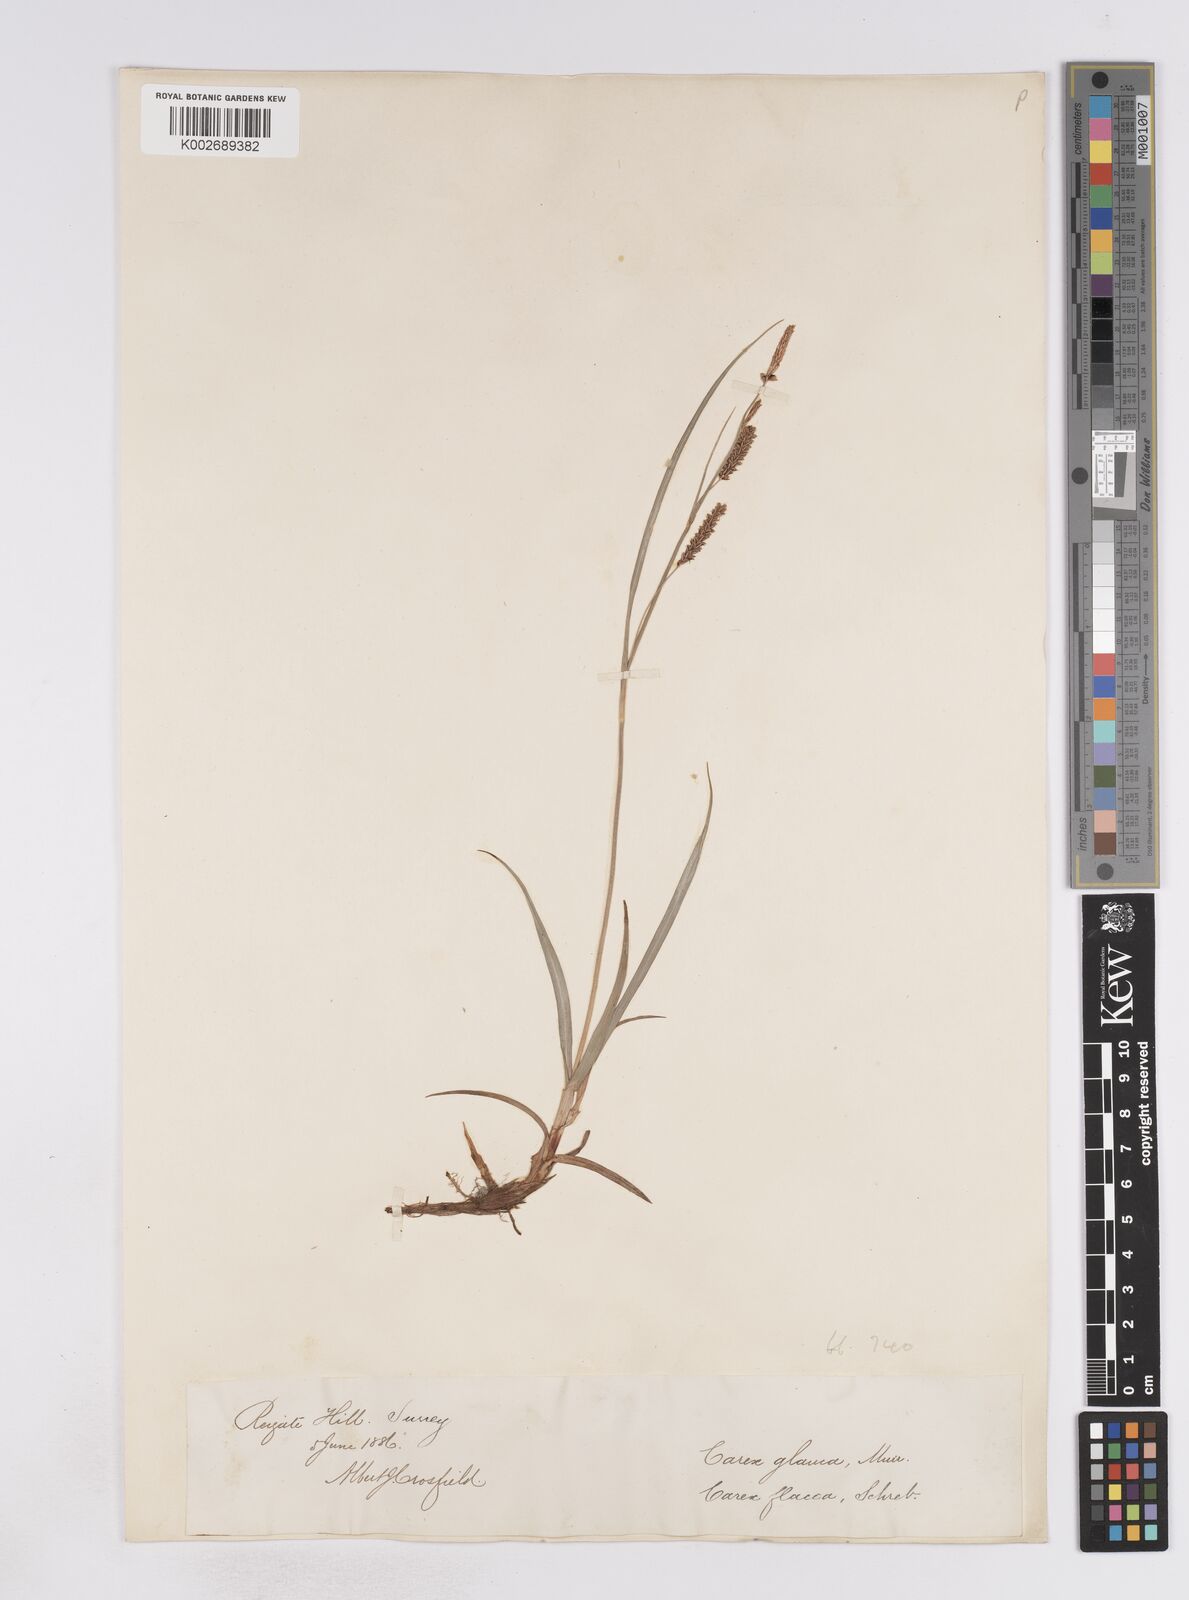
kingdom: Plantae
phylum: Tracheophyta
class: Liliopsida
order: Poales
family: Cyperaceae
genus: Carex
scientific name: Carex flacca
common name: Glaucous sedge
